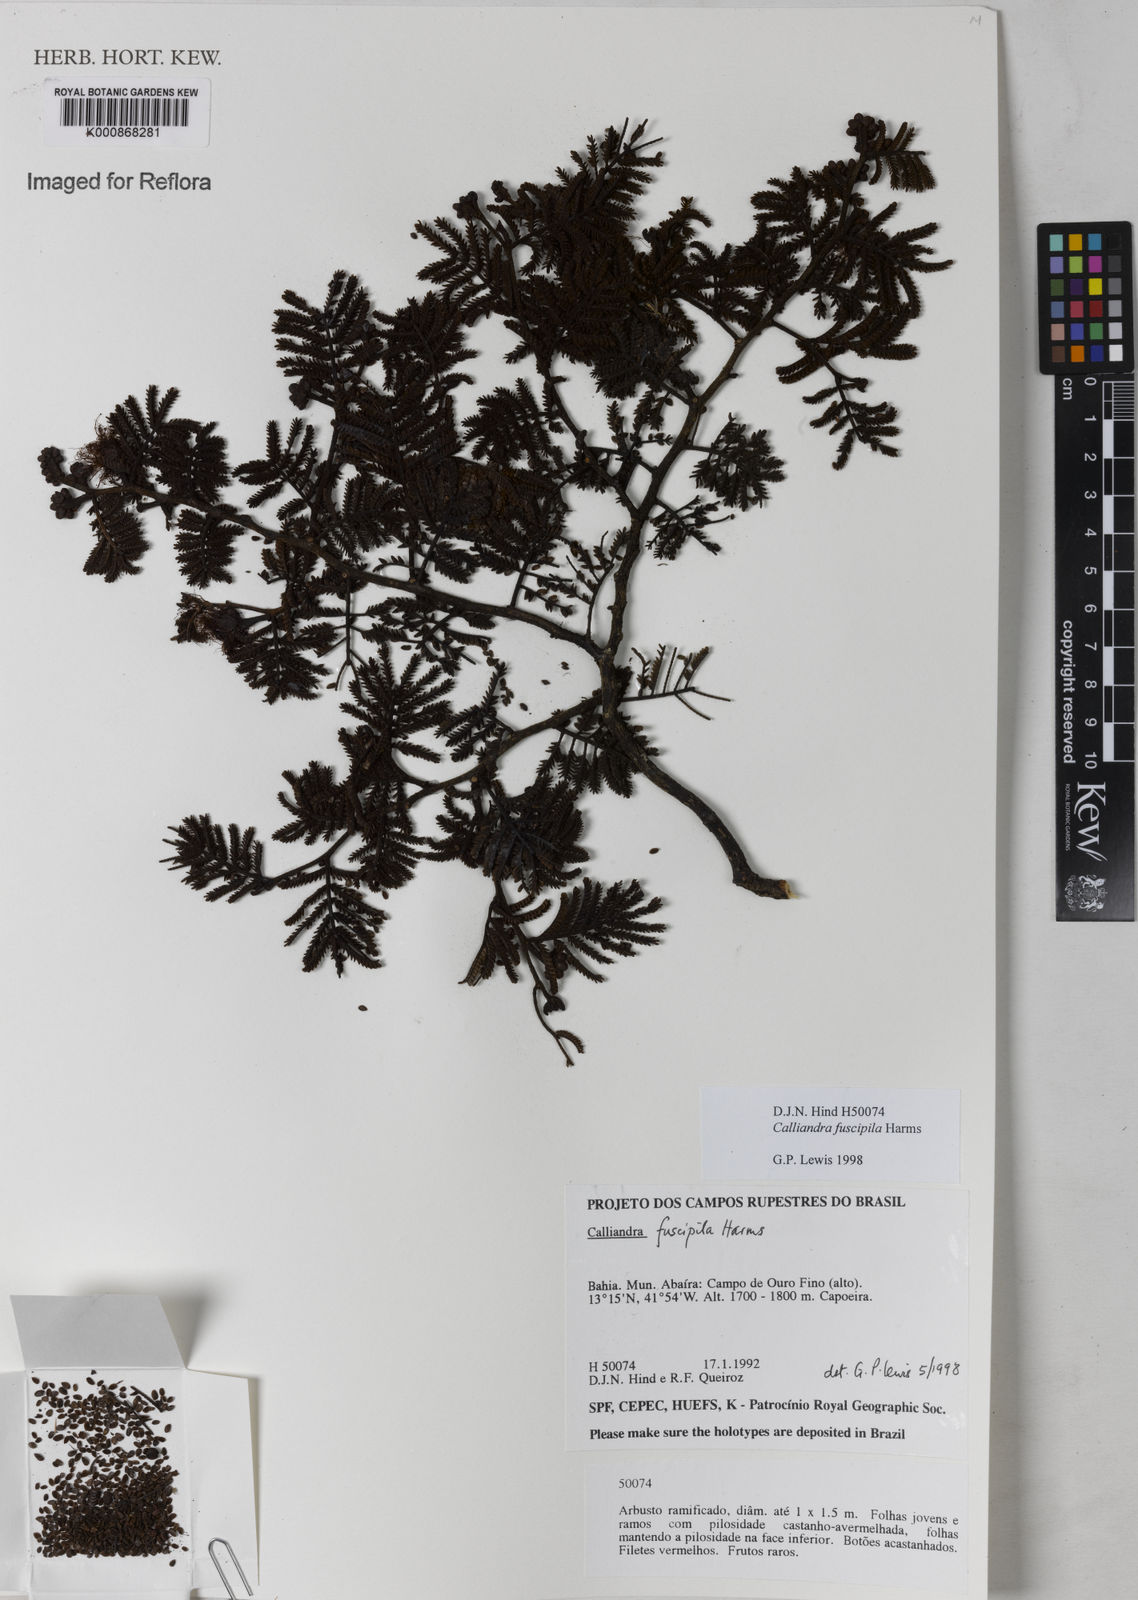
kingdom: Plantae
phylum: Tracheophyta
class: Magnoliopsida
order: Fabales
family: Fabaceae
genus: Calliandra
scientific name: Calliandra fuscipila
